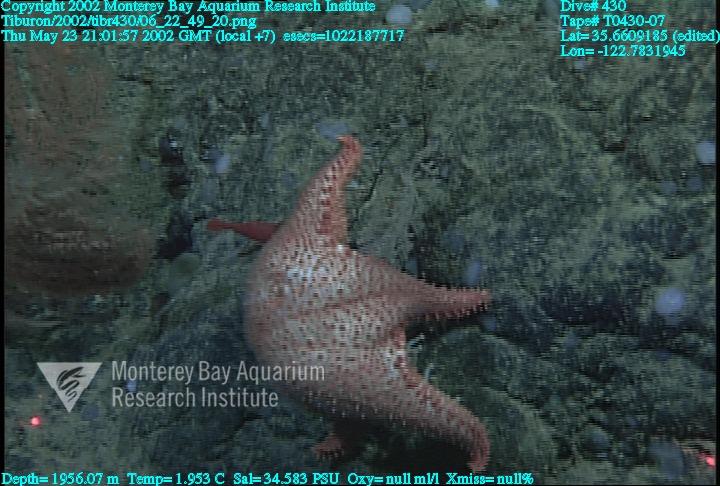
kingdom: Animalia
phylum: Porifera
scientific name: Porifera
